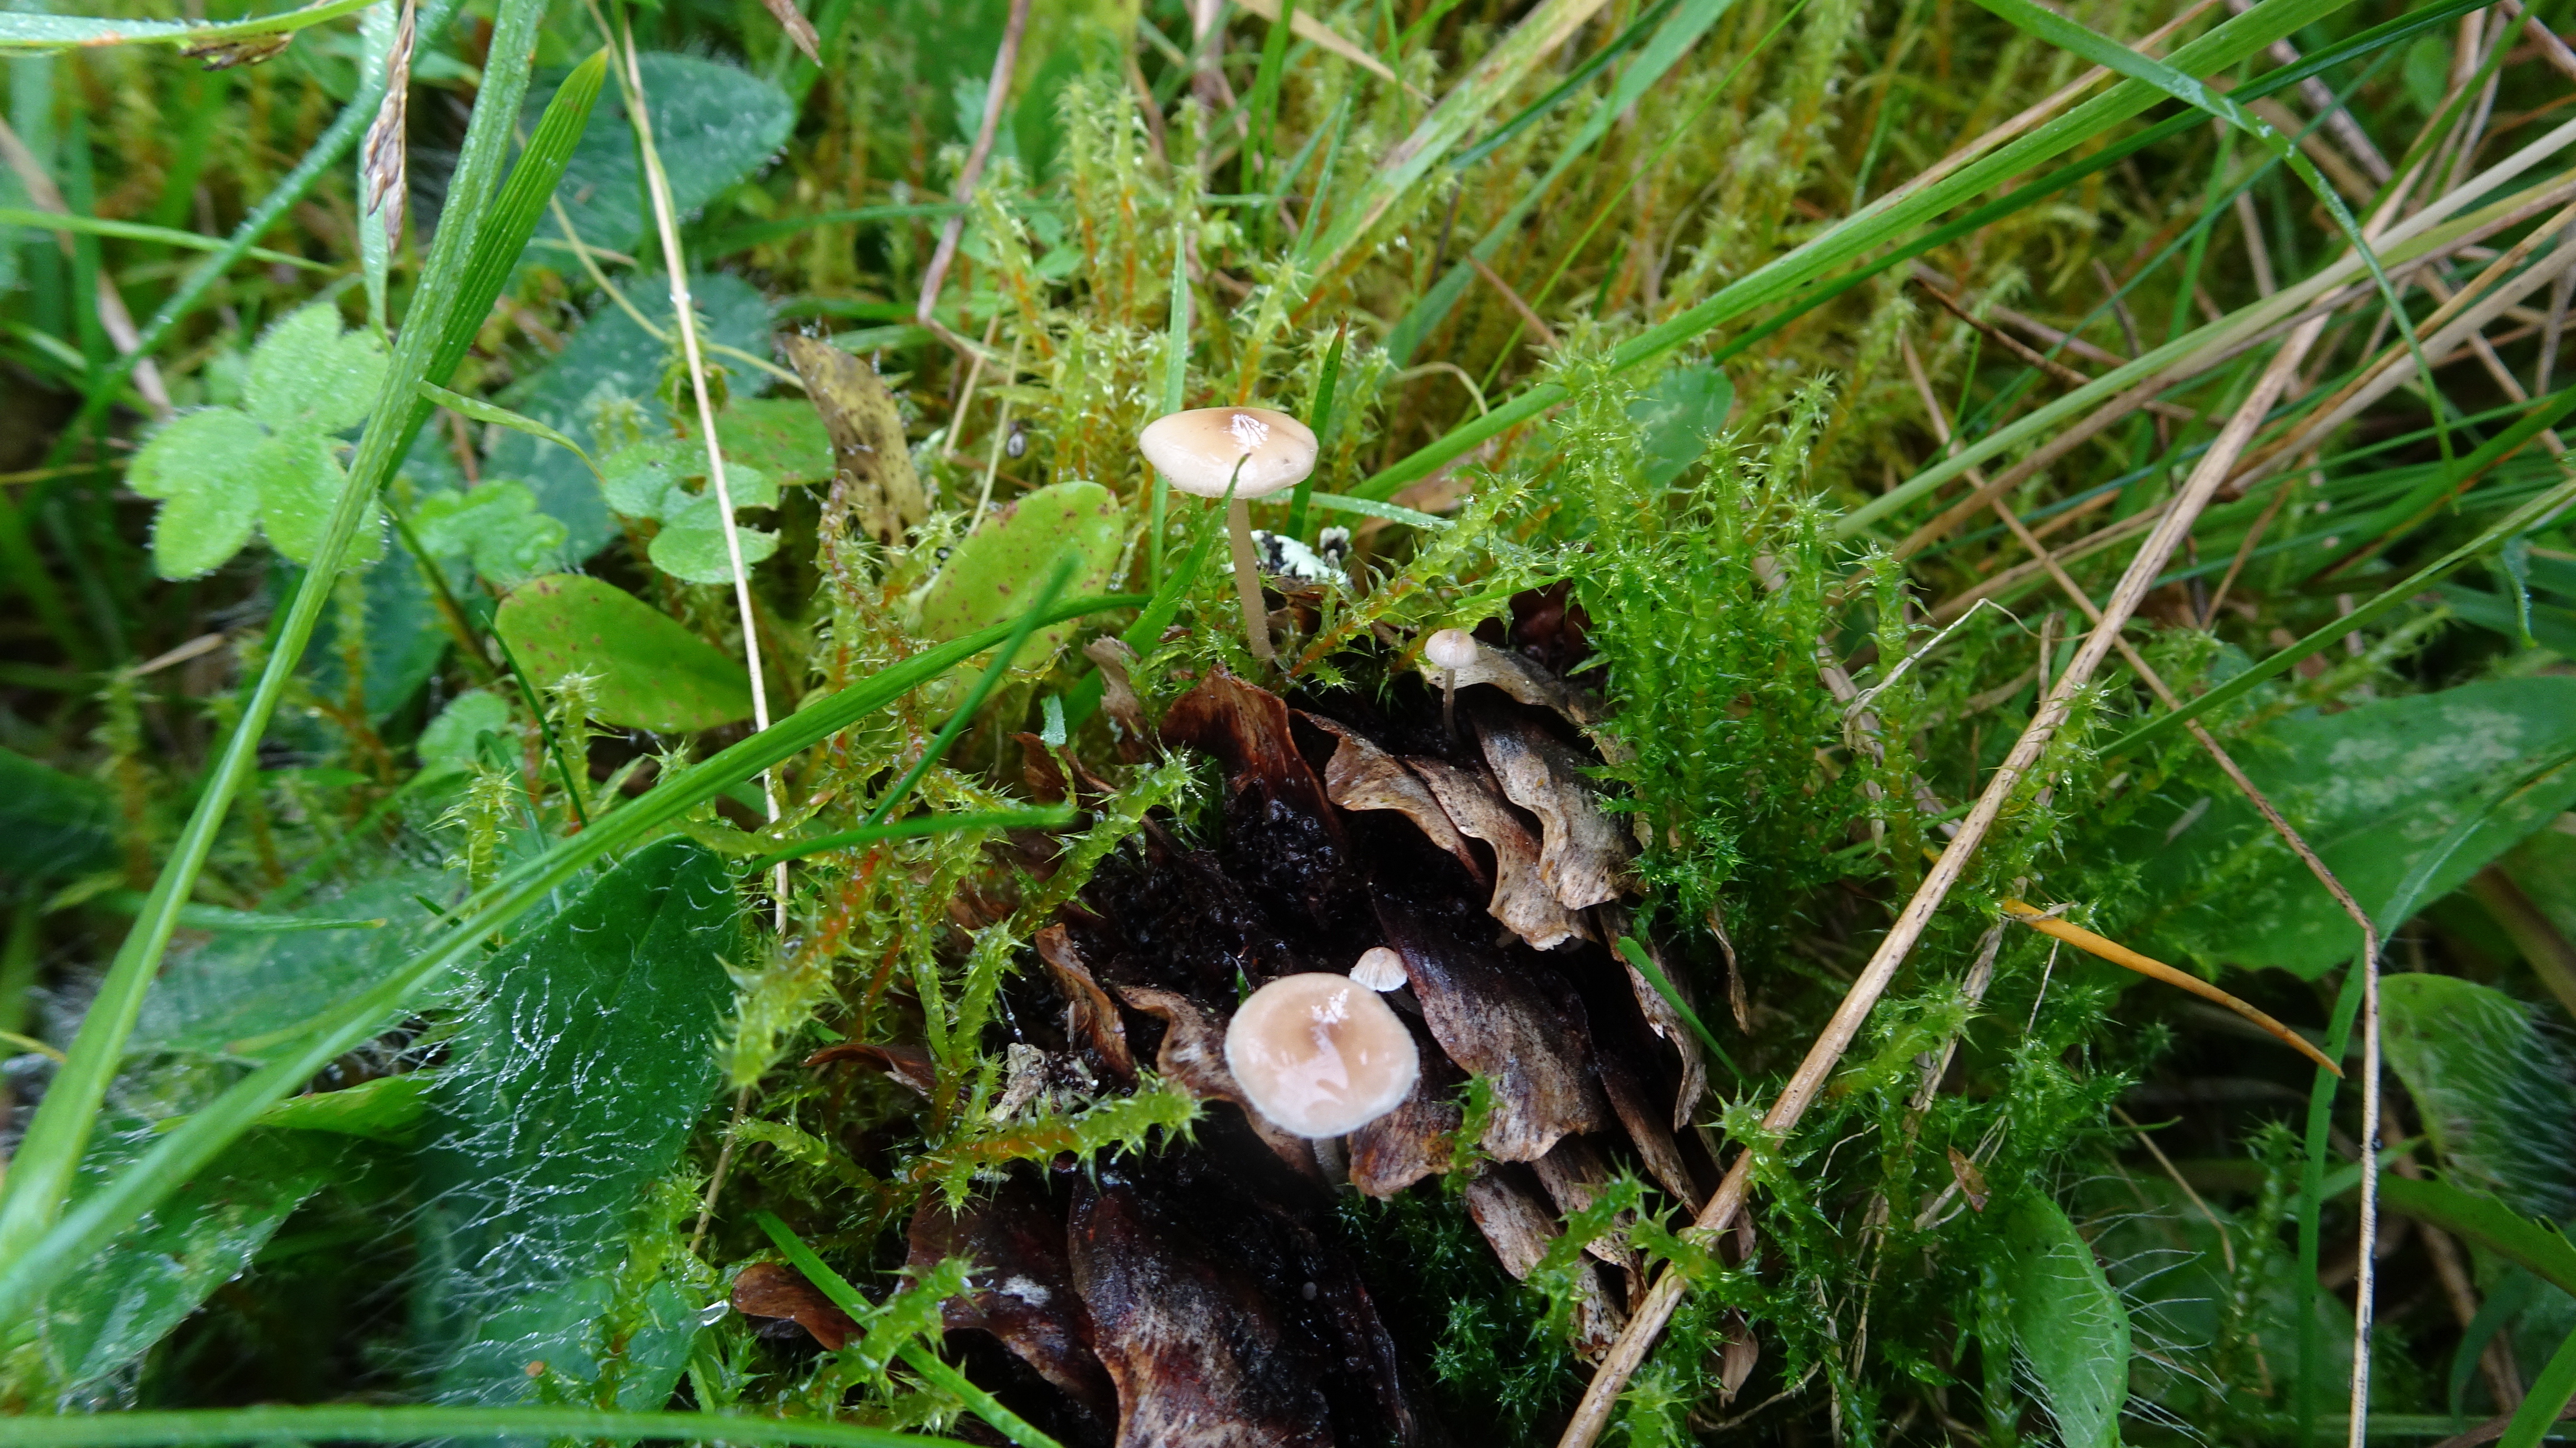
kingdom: Fungi
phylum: Basidiomycota
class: Agaricomycetes
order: Agaricales
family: Marasmiaceae
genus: Baeospora
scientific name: Baeospora myosura
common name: Conifercone cap
